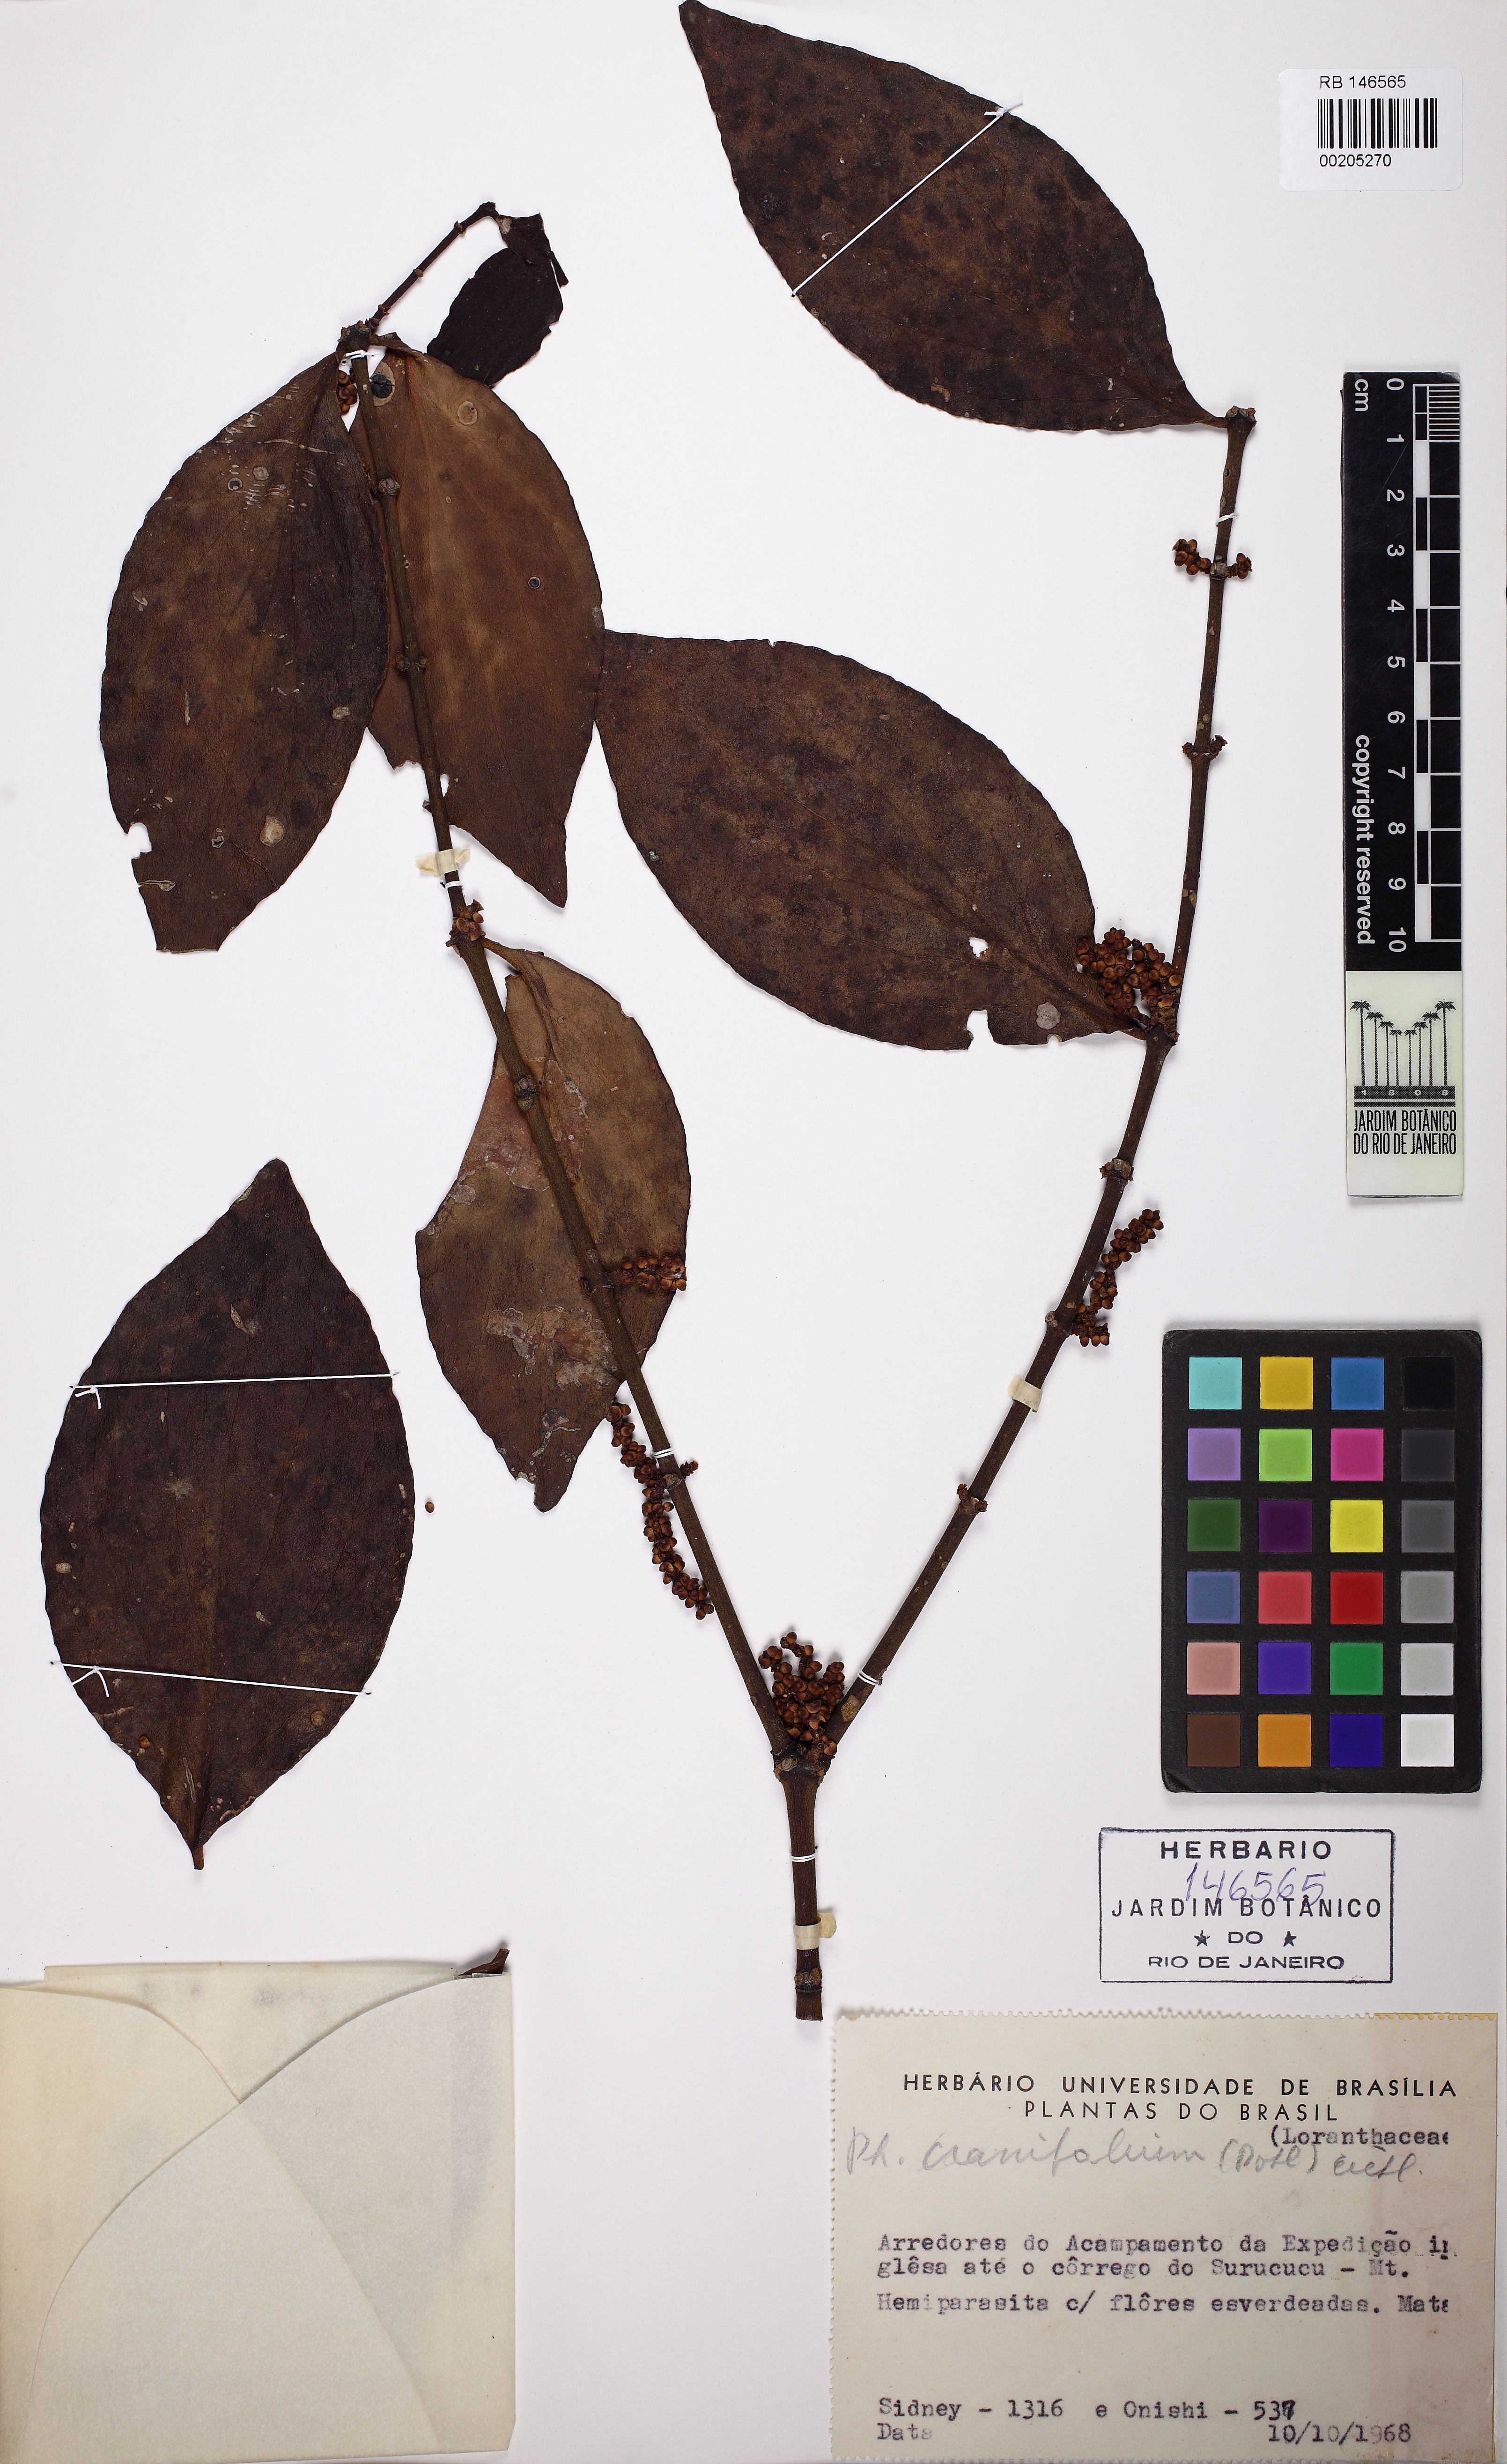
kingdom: Plantae
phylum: Tracheophyta
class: Magnoliopsida
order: Santalales
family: Viscaceae
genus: Phoradendron
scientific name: Phoradendron crassifolium
